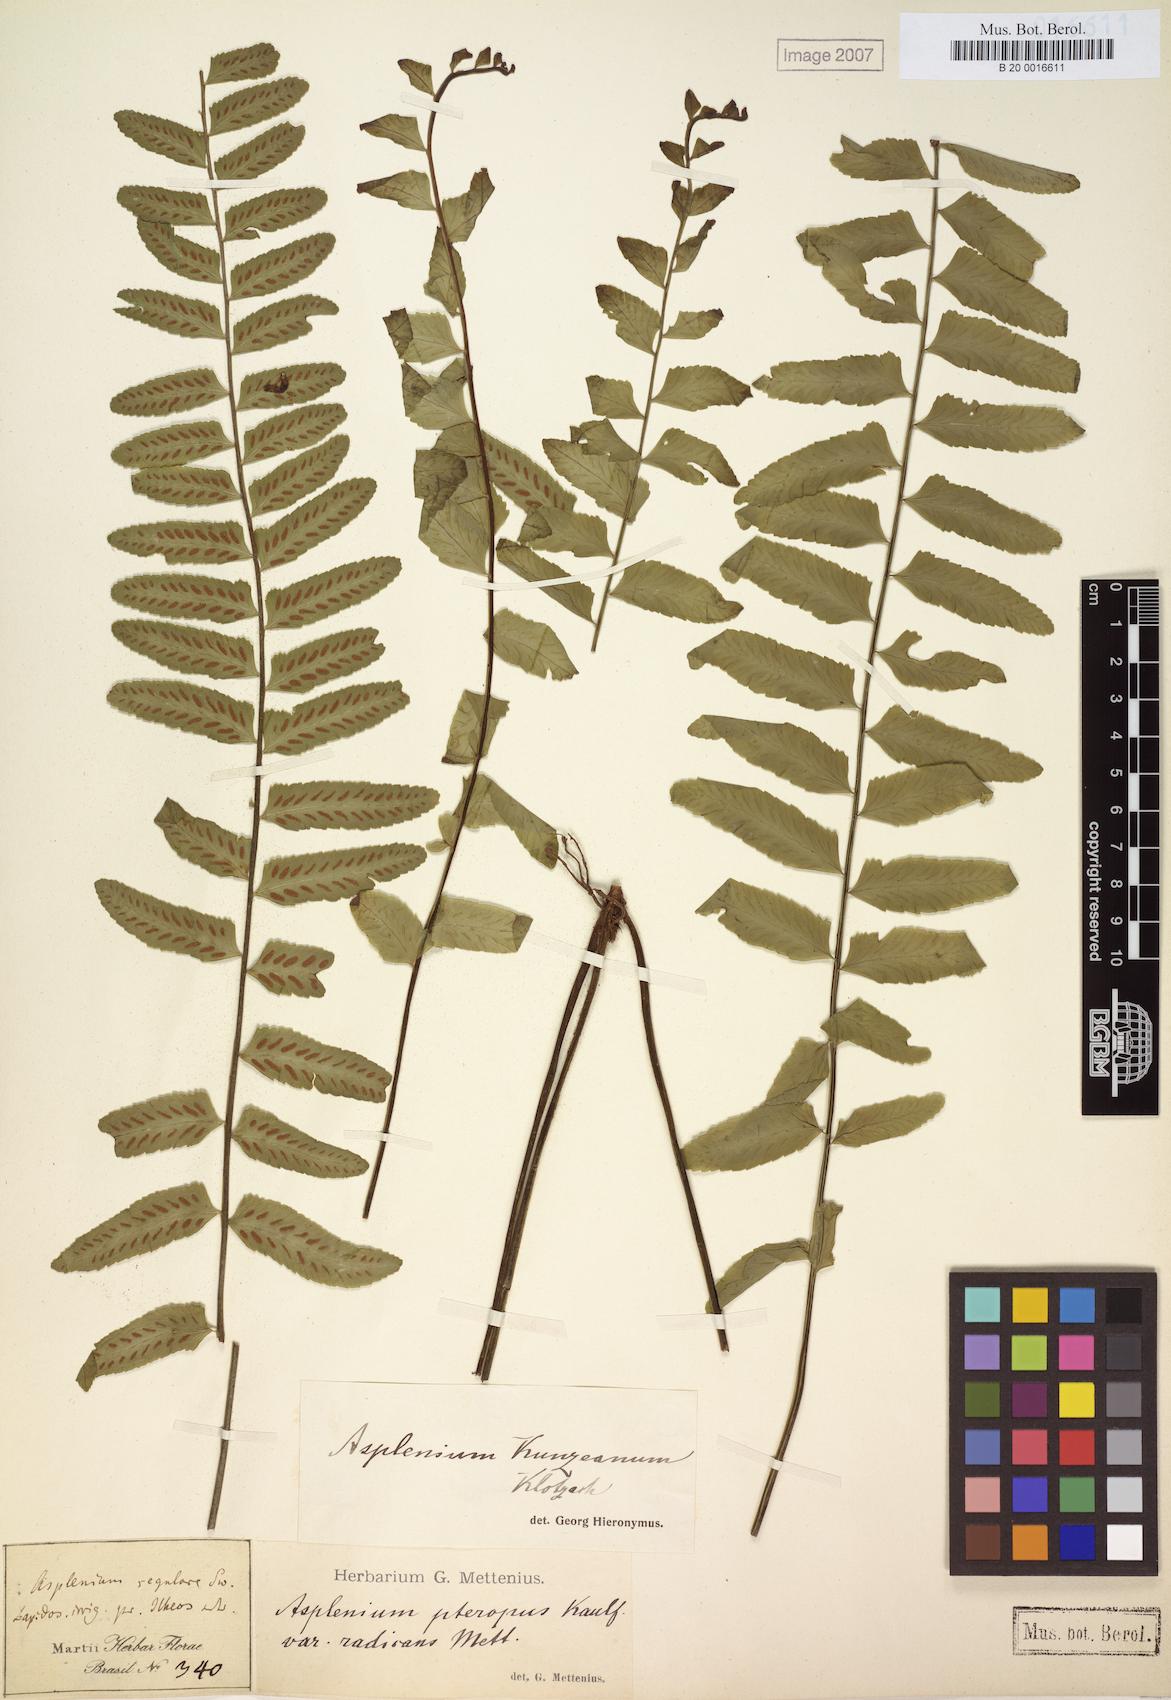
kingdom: Plantae
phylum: Tracheophyta
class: Polypodiopsida
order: Polypodiales
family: Aspleniaceae
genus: Asplenium
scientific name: Asplenium kunzeanum
